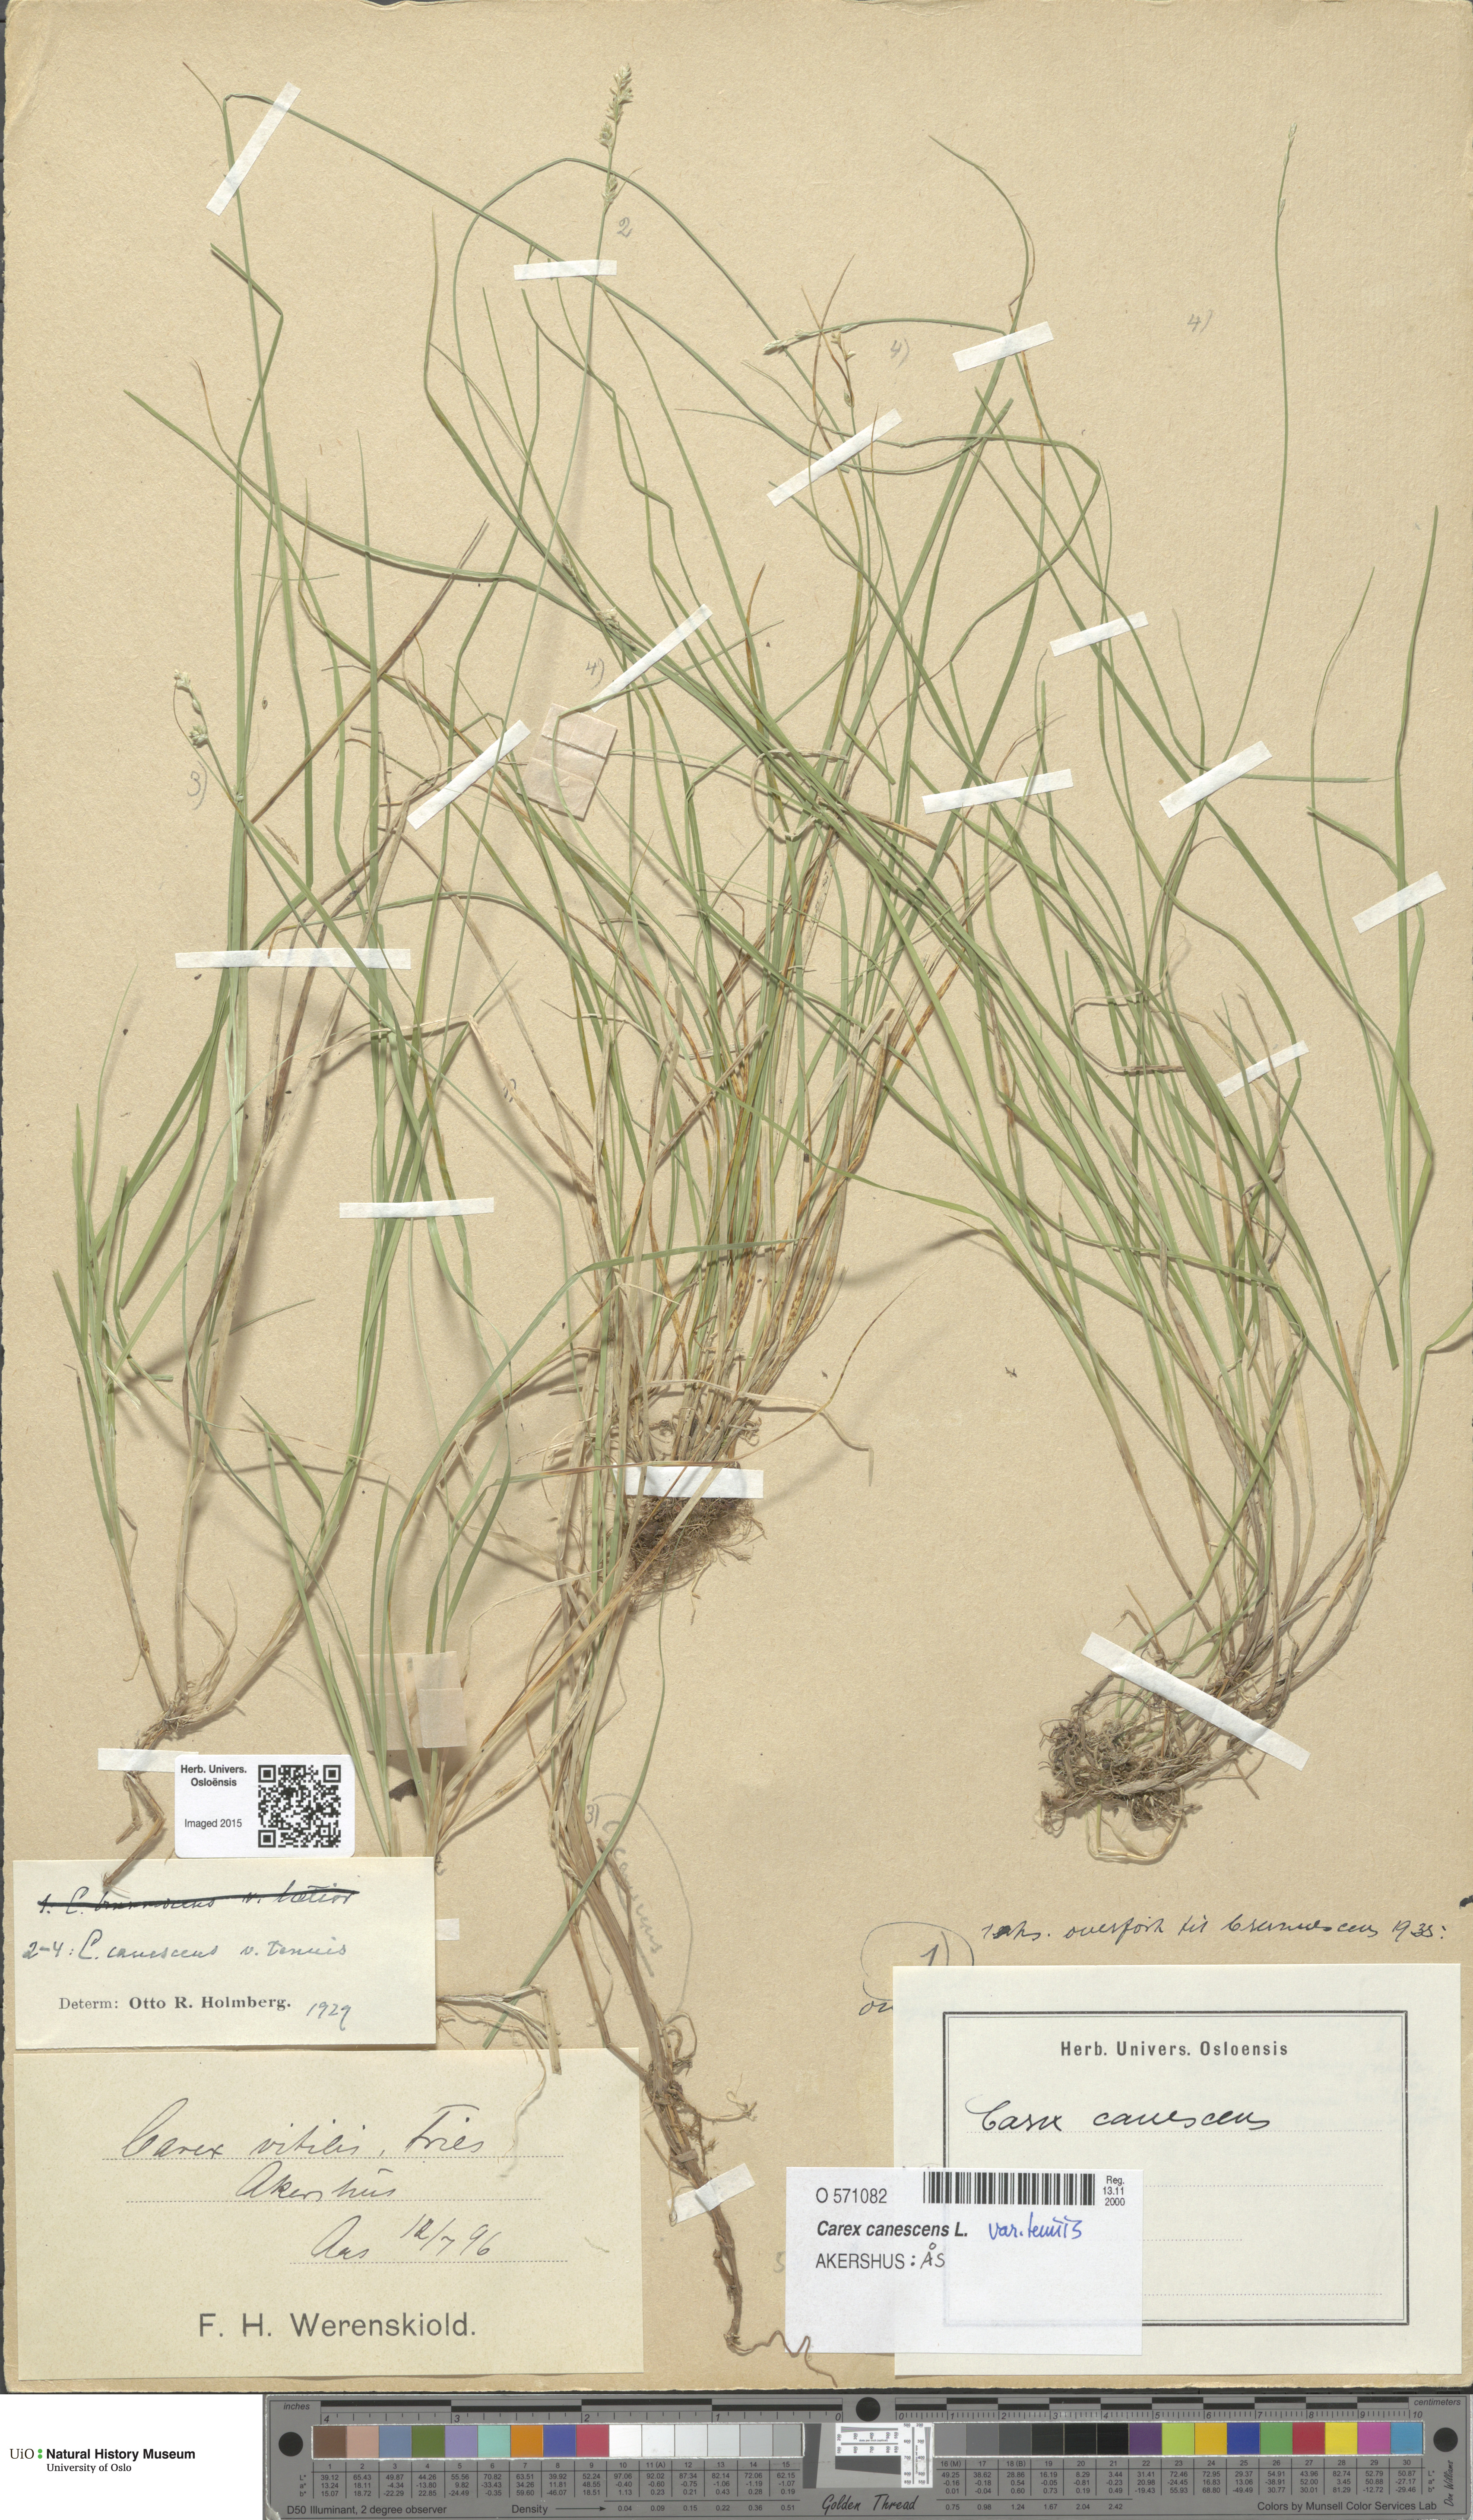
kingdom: Plantae
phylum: Tracheophyta
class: Liliopsida
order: Poales
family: Cyperaceae
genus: Carex
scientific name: Carex canescens
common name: White sedge
